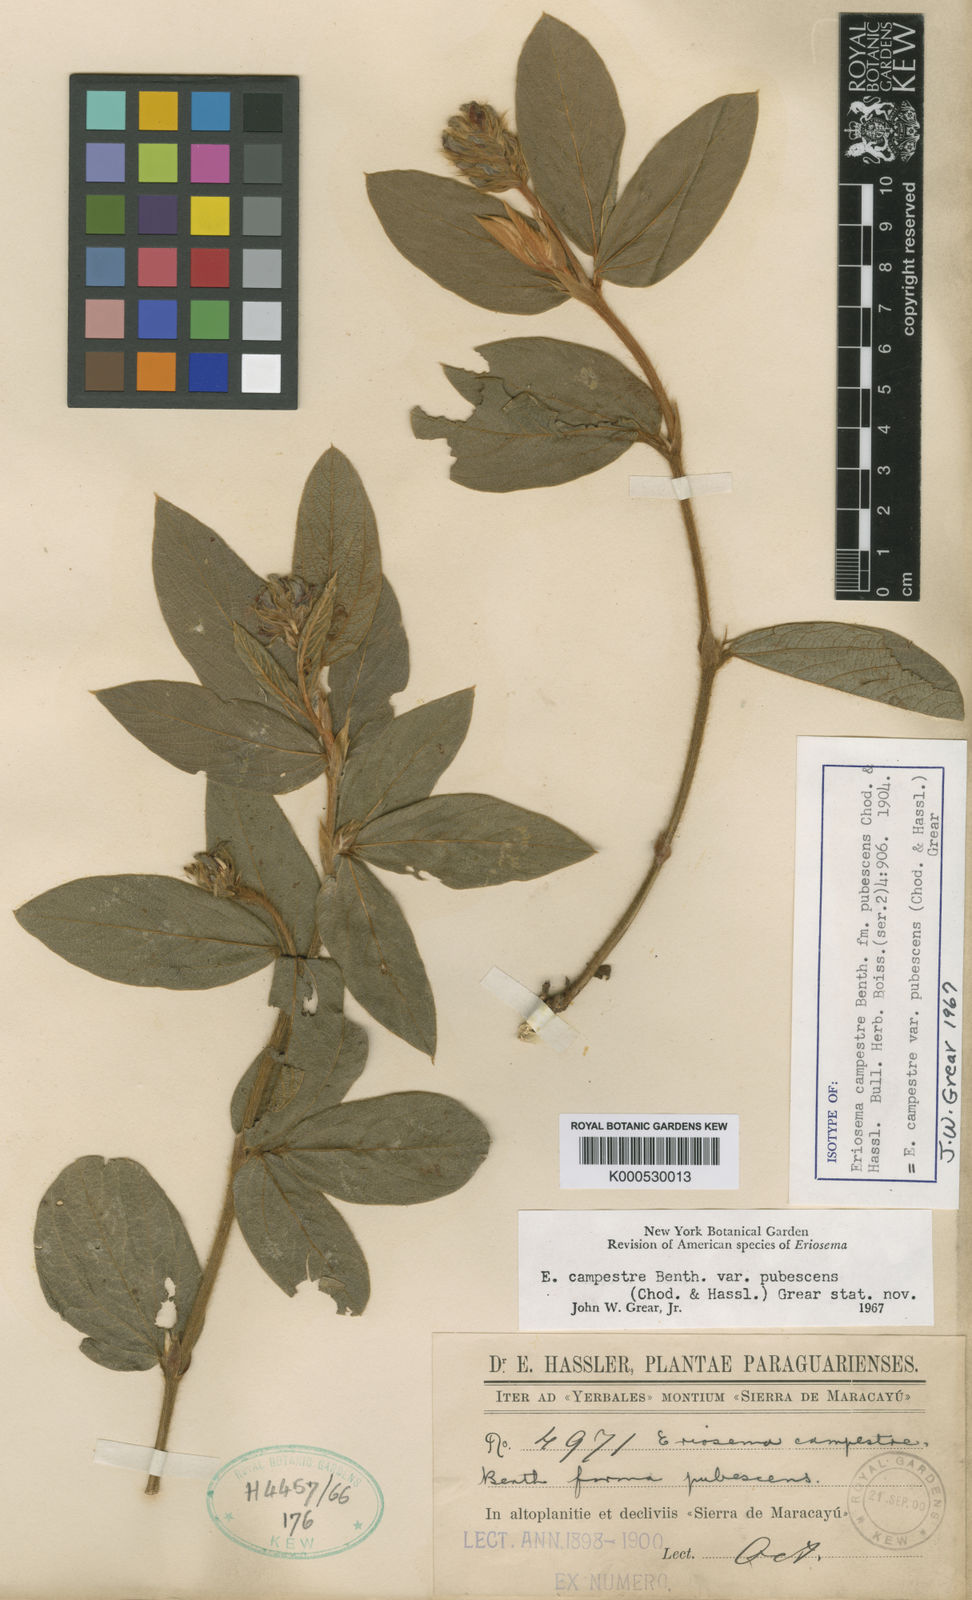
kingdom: Plantae
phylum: Tracheophyta
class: Magnoliopsida
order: Fabales
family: Fabaceae
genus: Eriosema
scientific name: Eriosema rufum
